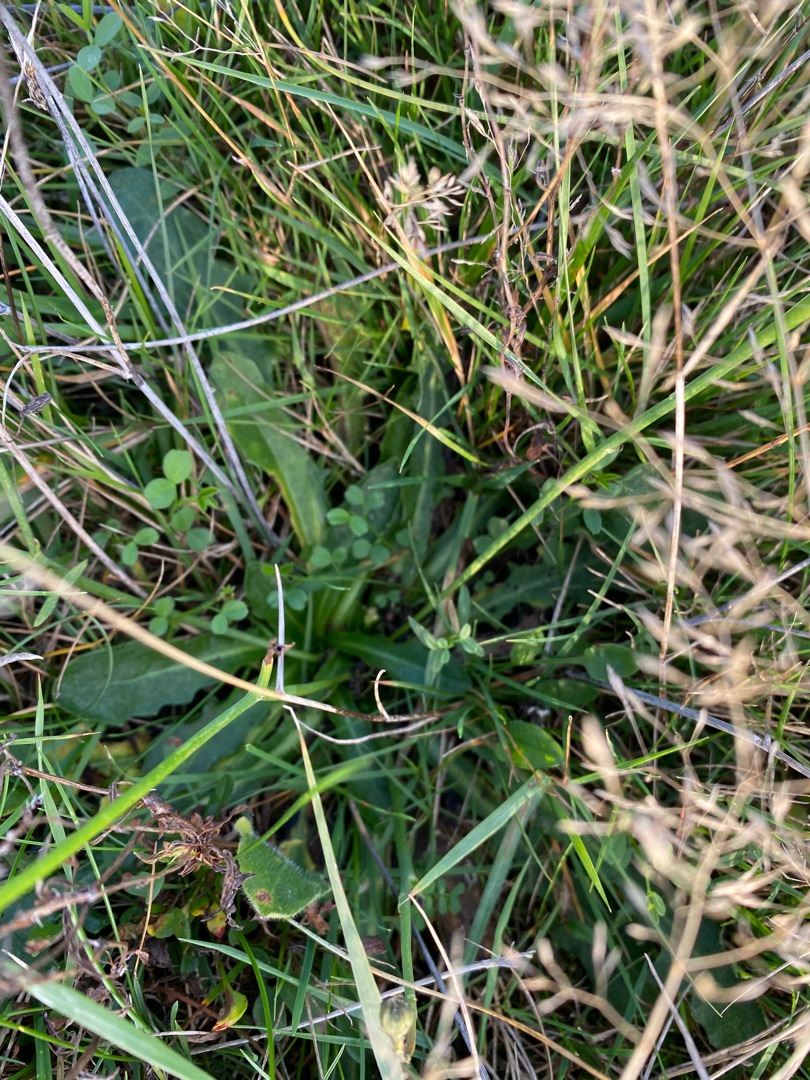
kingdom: Plantae
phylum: Tracheophyta
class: Magnoliopsida
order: Asterales
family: Asteraceae
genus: Hypochaeris
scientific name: Hypochaeris radicata
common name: Almindelig kongepen
